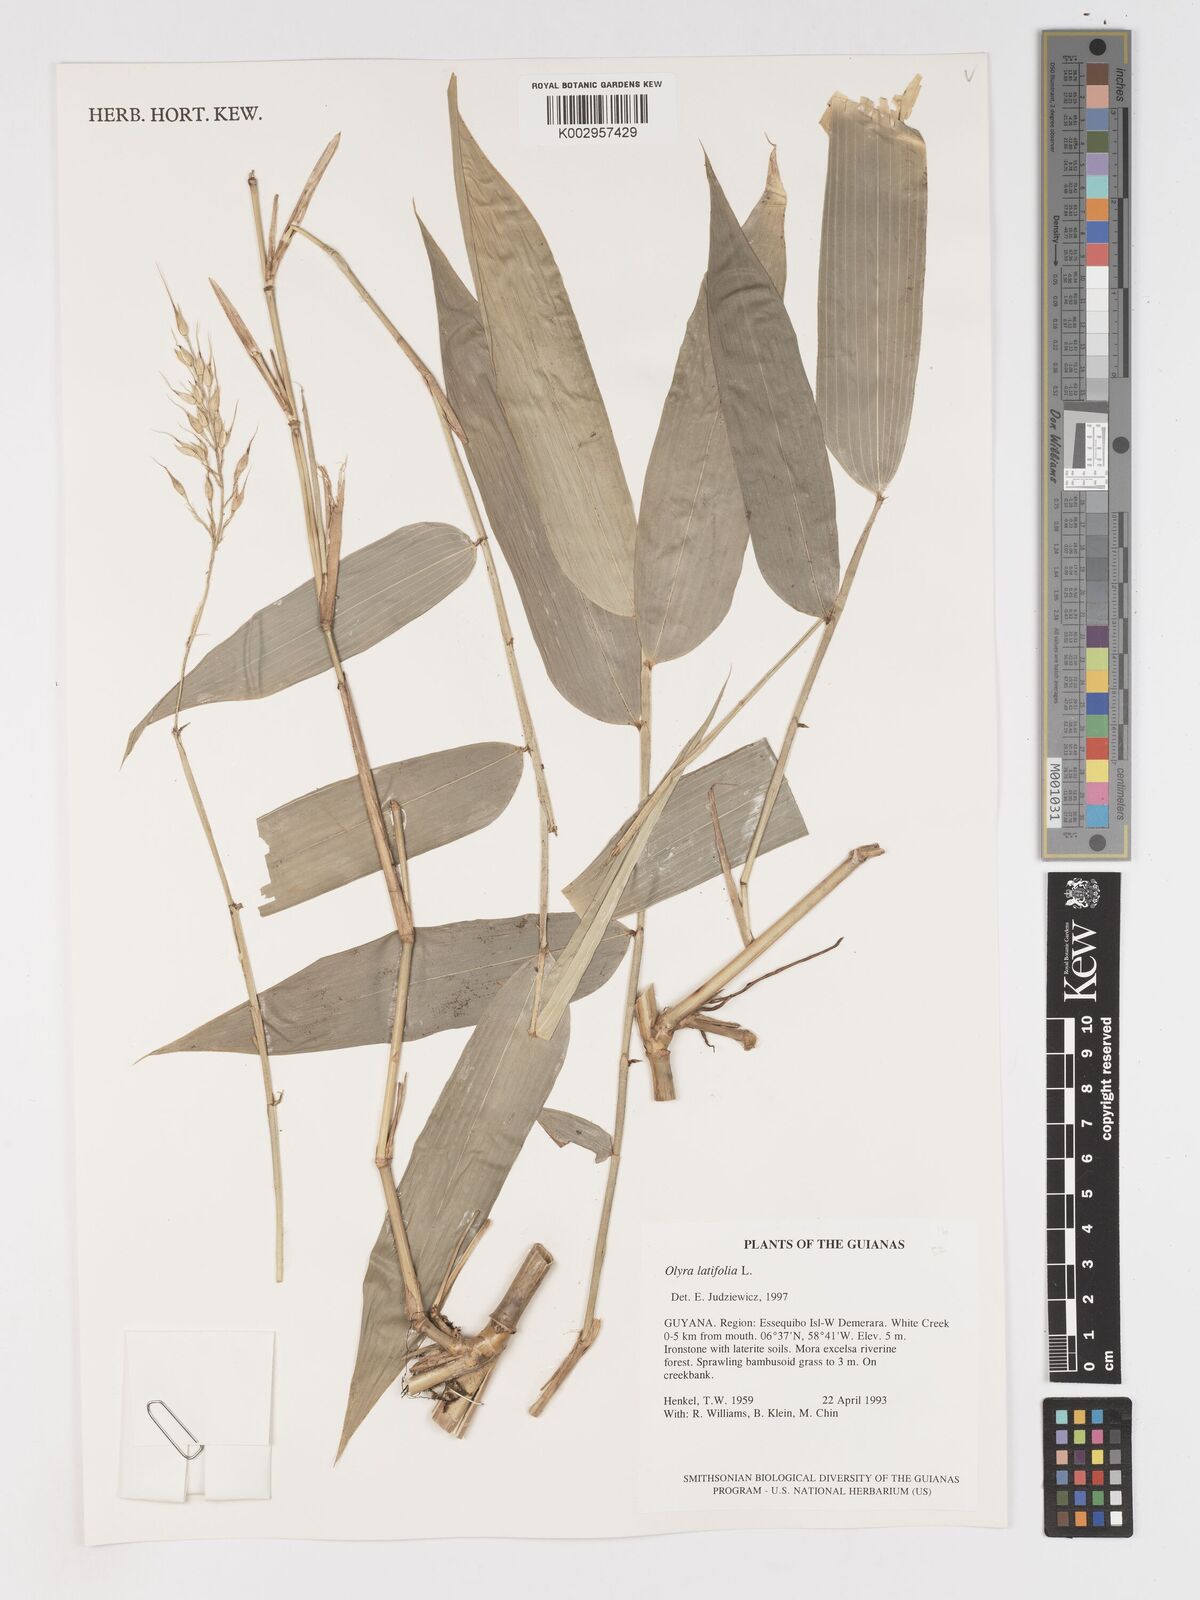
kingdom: Plantae
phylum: Tracheophyta
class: Liliopsida
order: Poales
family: Poaceae
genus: Olyra
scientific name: Olyra latifolia
